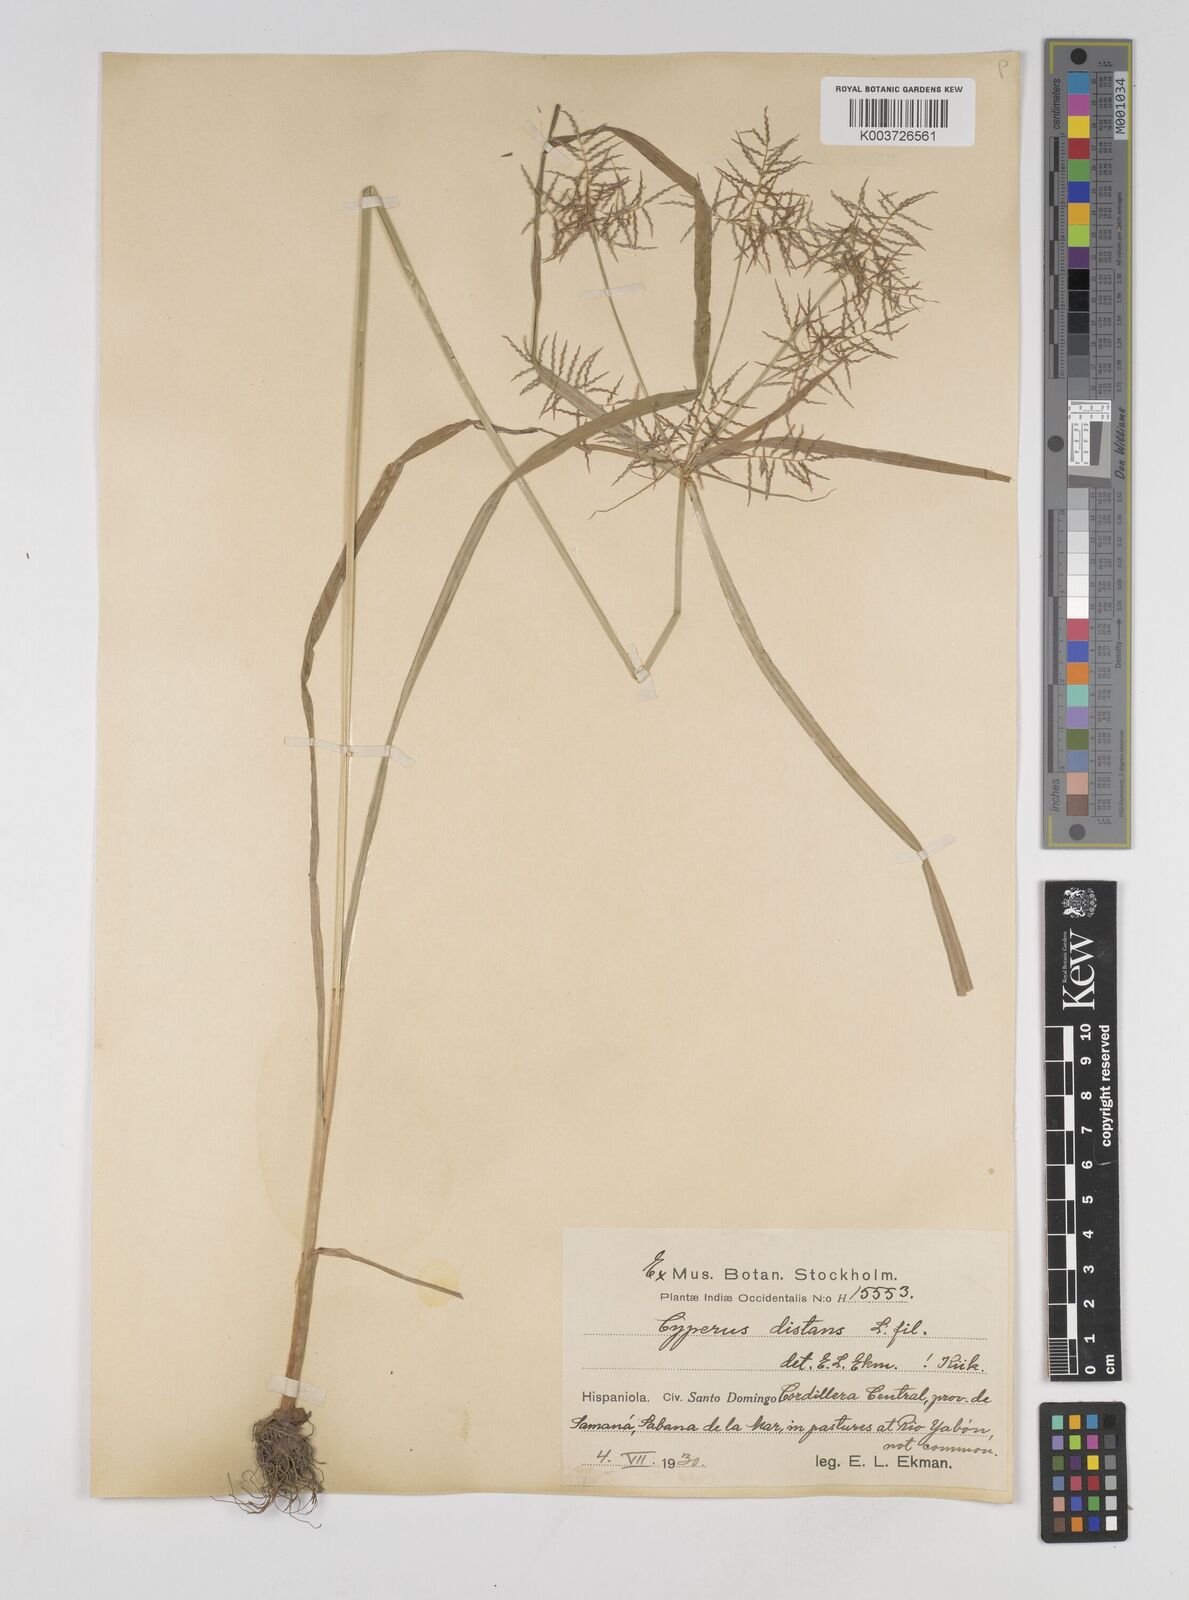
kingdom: Plantae
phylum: Tracheophyta
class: Liliopsida
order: Poales
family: Cyperaceae
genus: Cyperus
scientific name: Cyperus distans
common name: Slender cyperus
